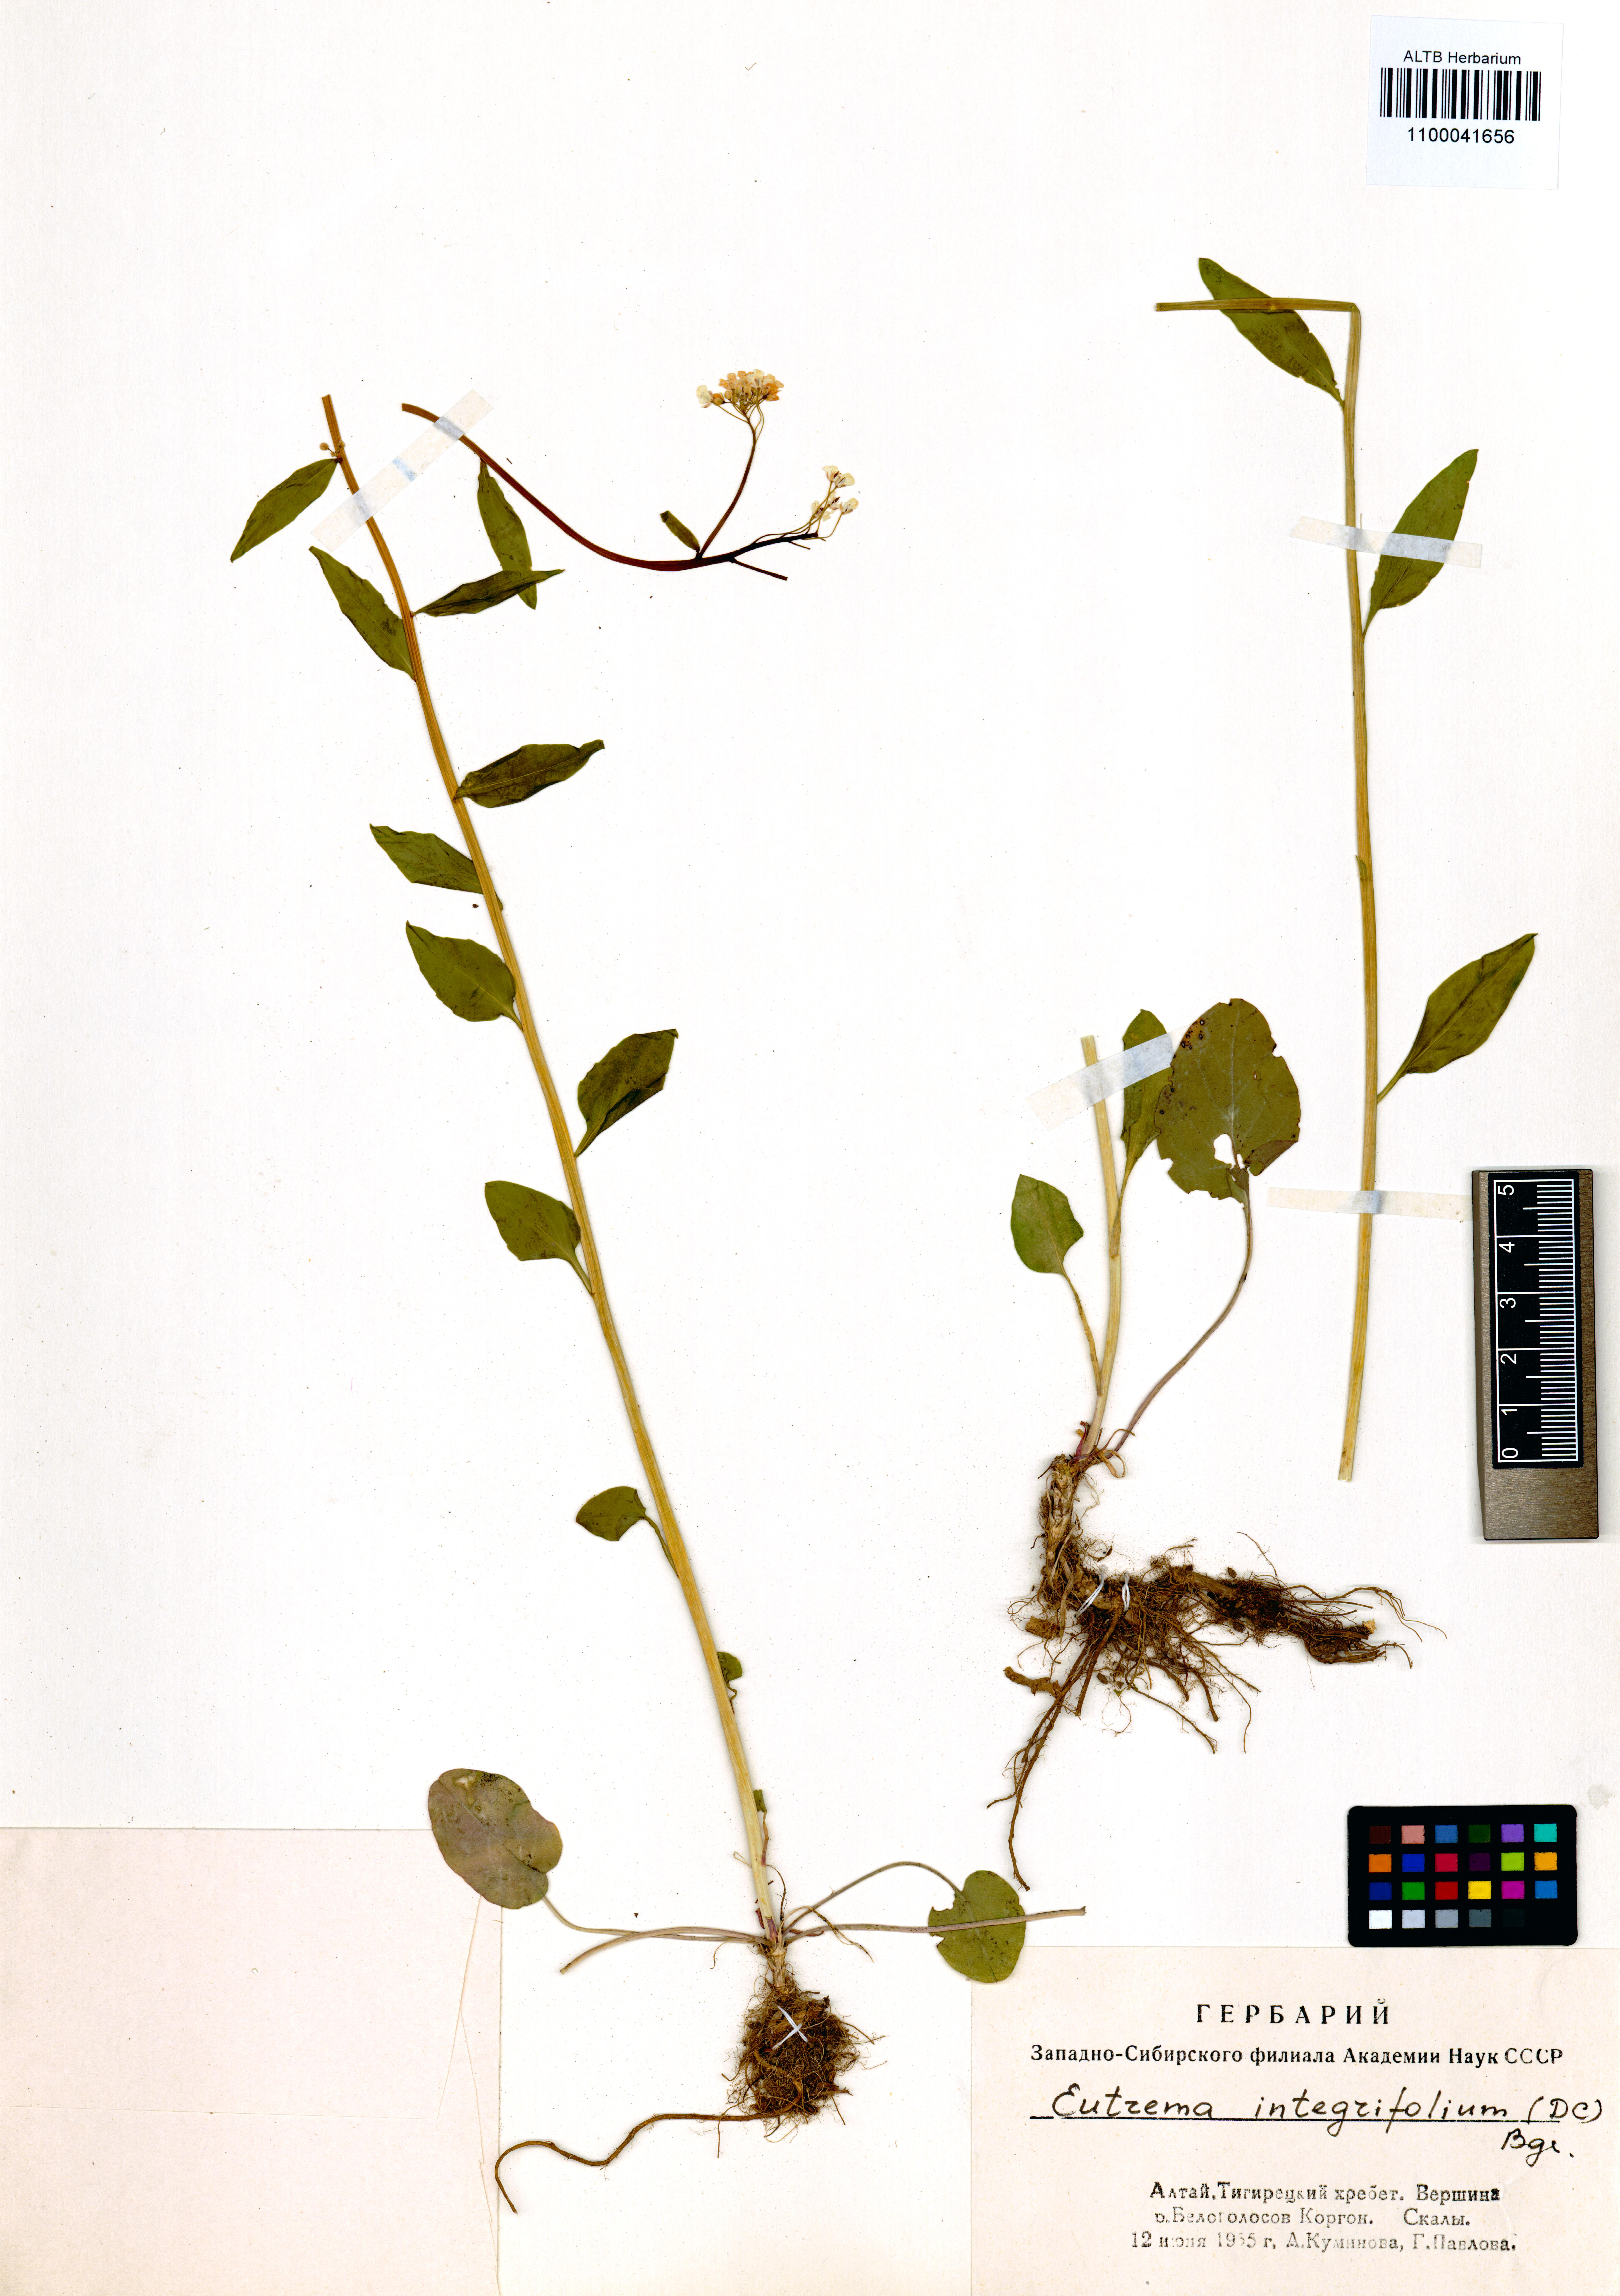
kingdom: Plantae
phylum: Tracheophyta
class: Magnoliopsida
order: Brassicales
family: Brassicaceae
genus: Eutrema
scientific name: Eutrema integrifolium
